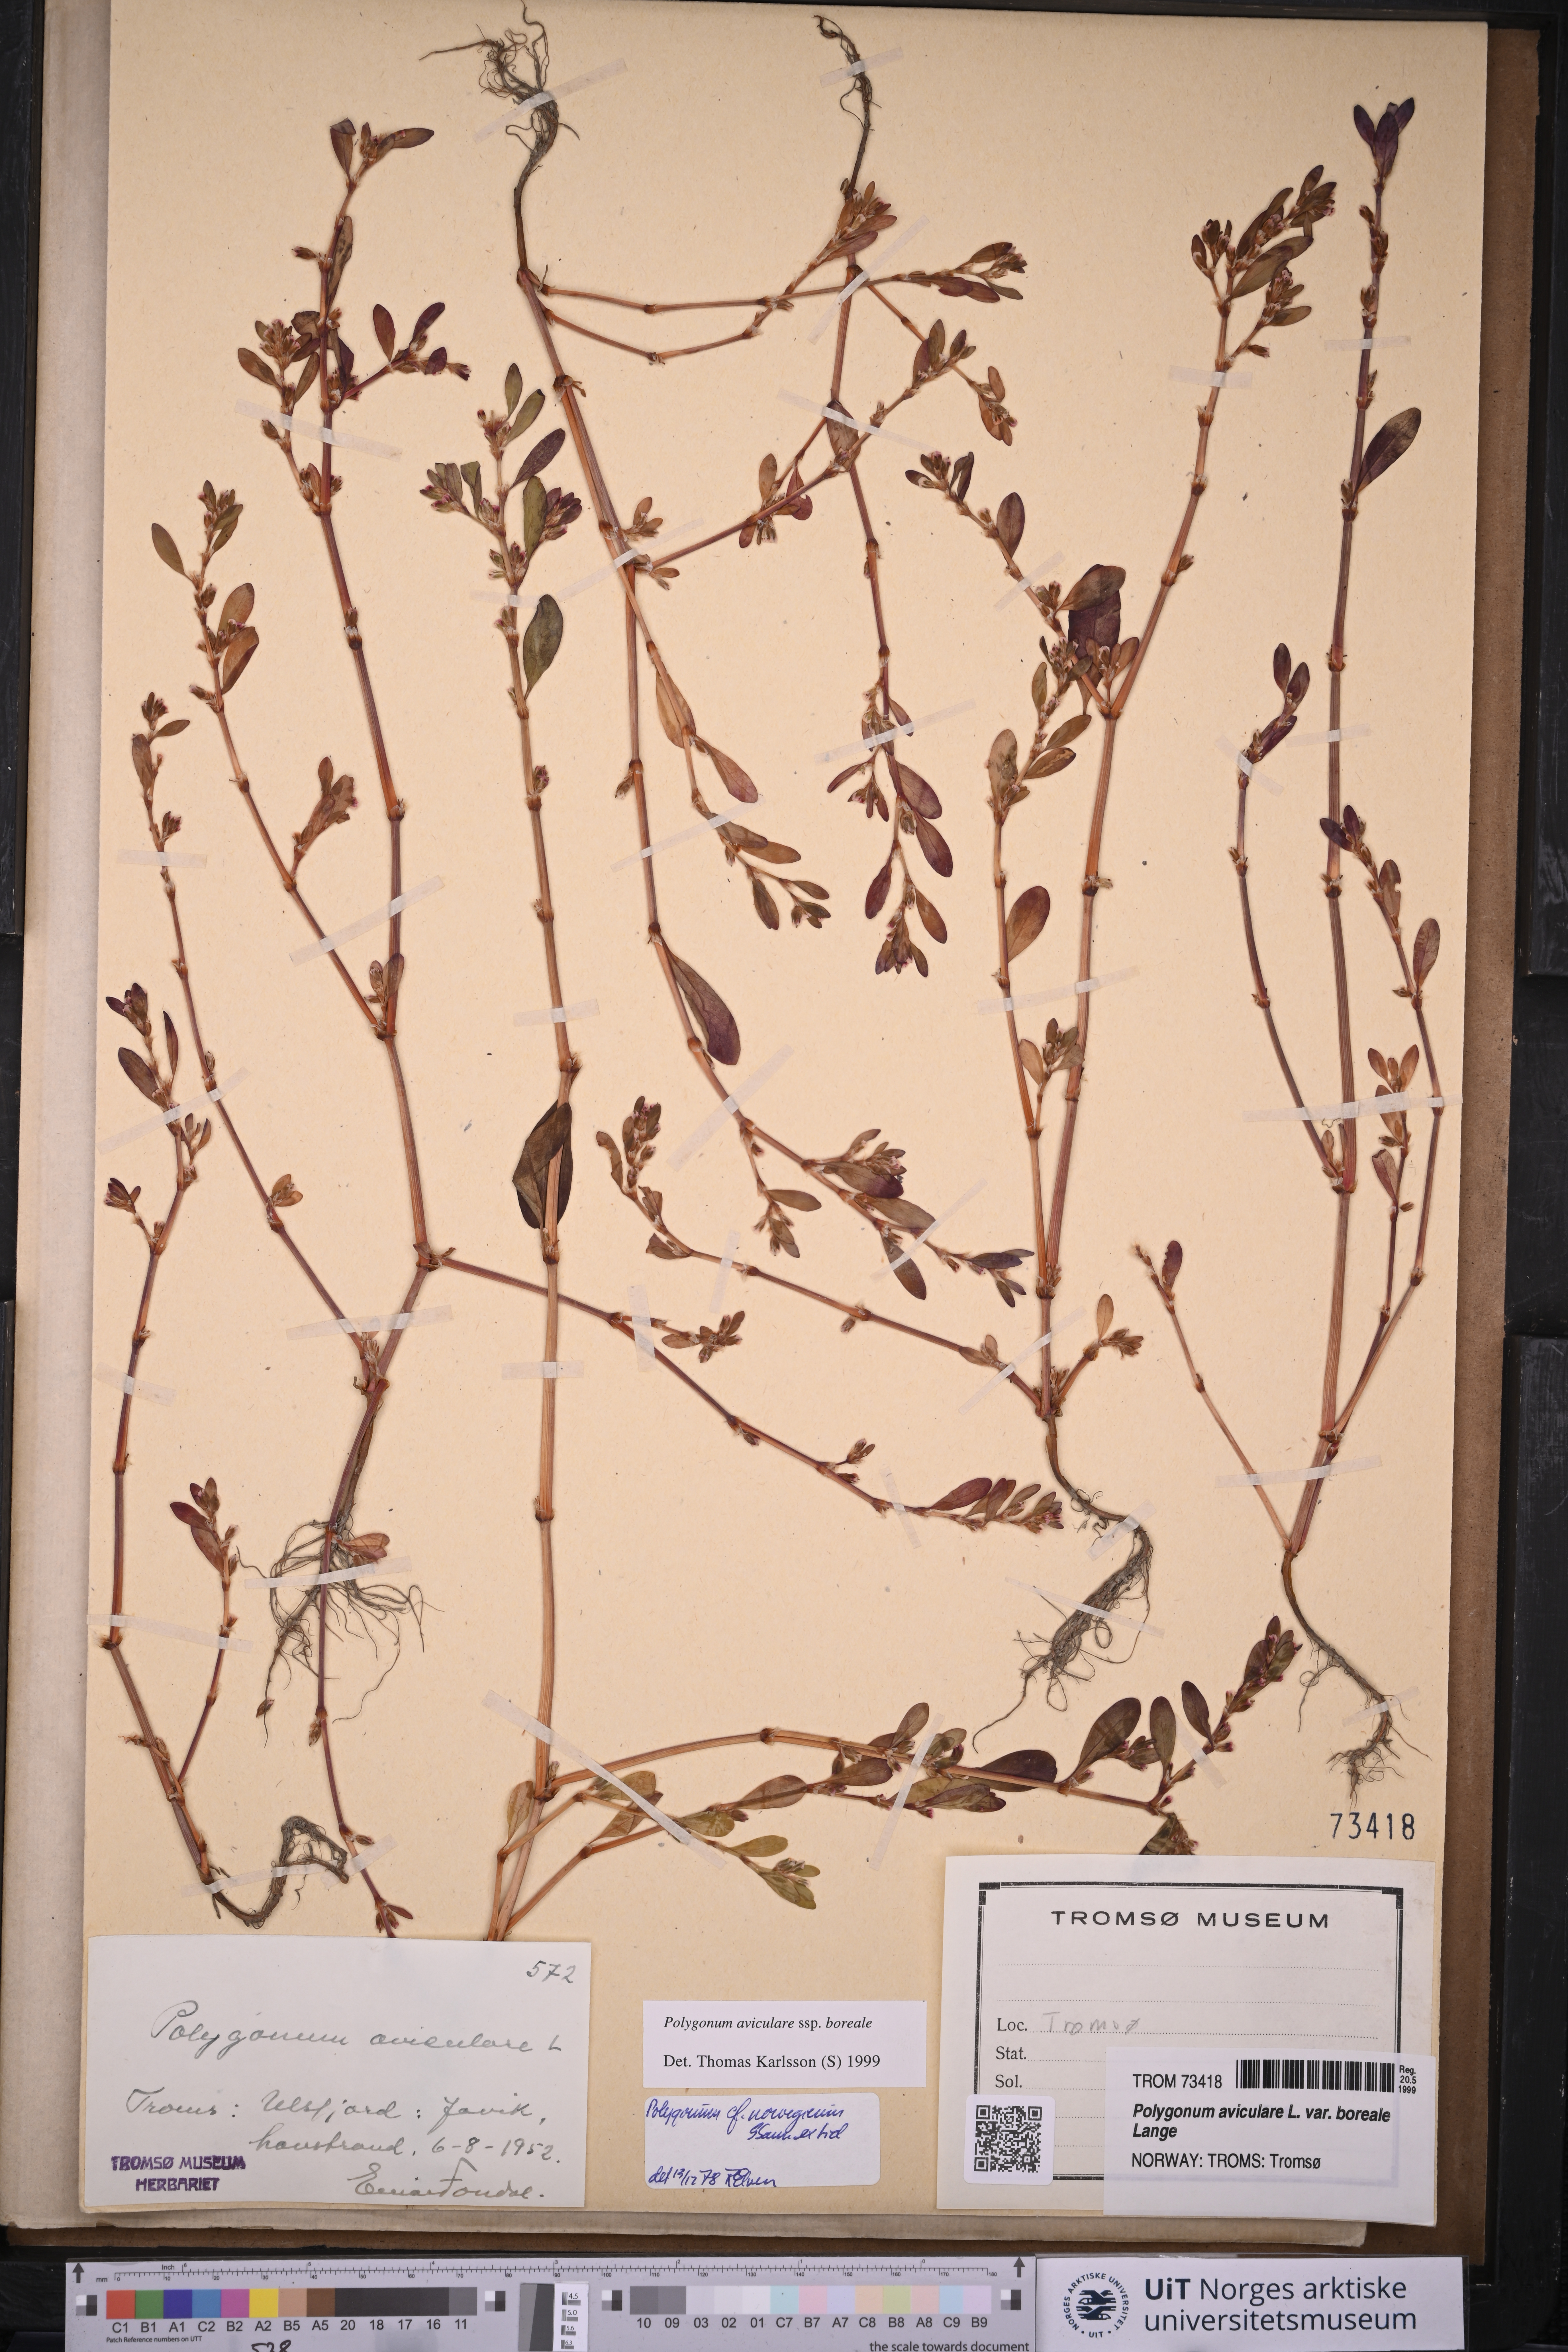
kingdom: Plantae
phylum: Tracheophyta
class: Magnoliopsida
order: Caryophyllales
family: Polygonaceae
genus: Polygonum
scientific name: Polygonum boreale
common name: Northern knotgrass
